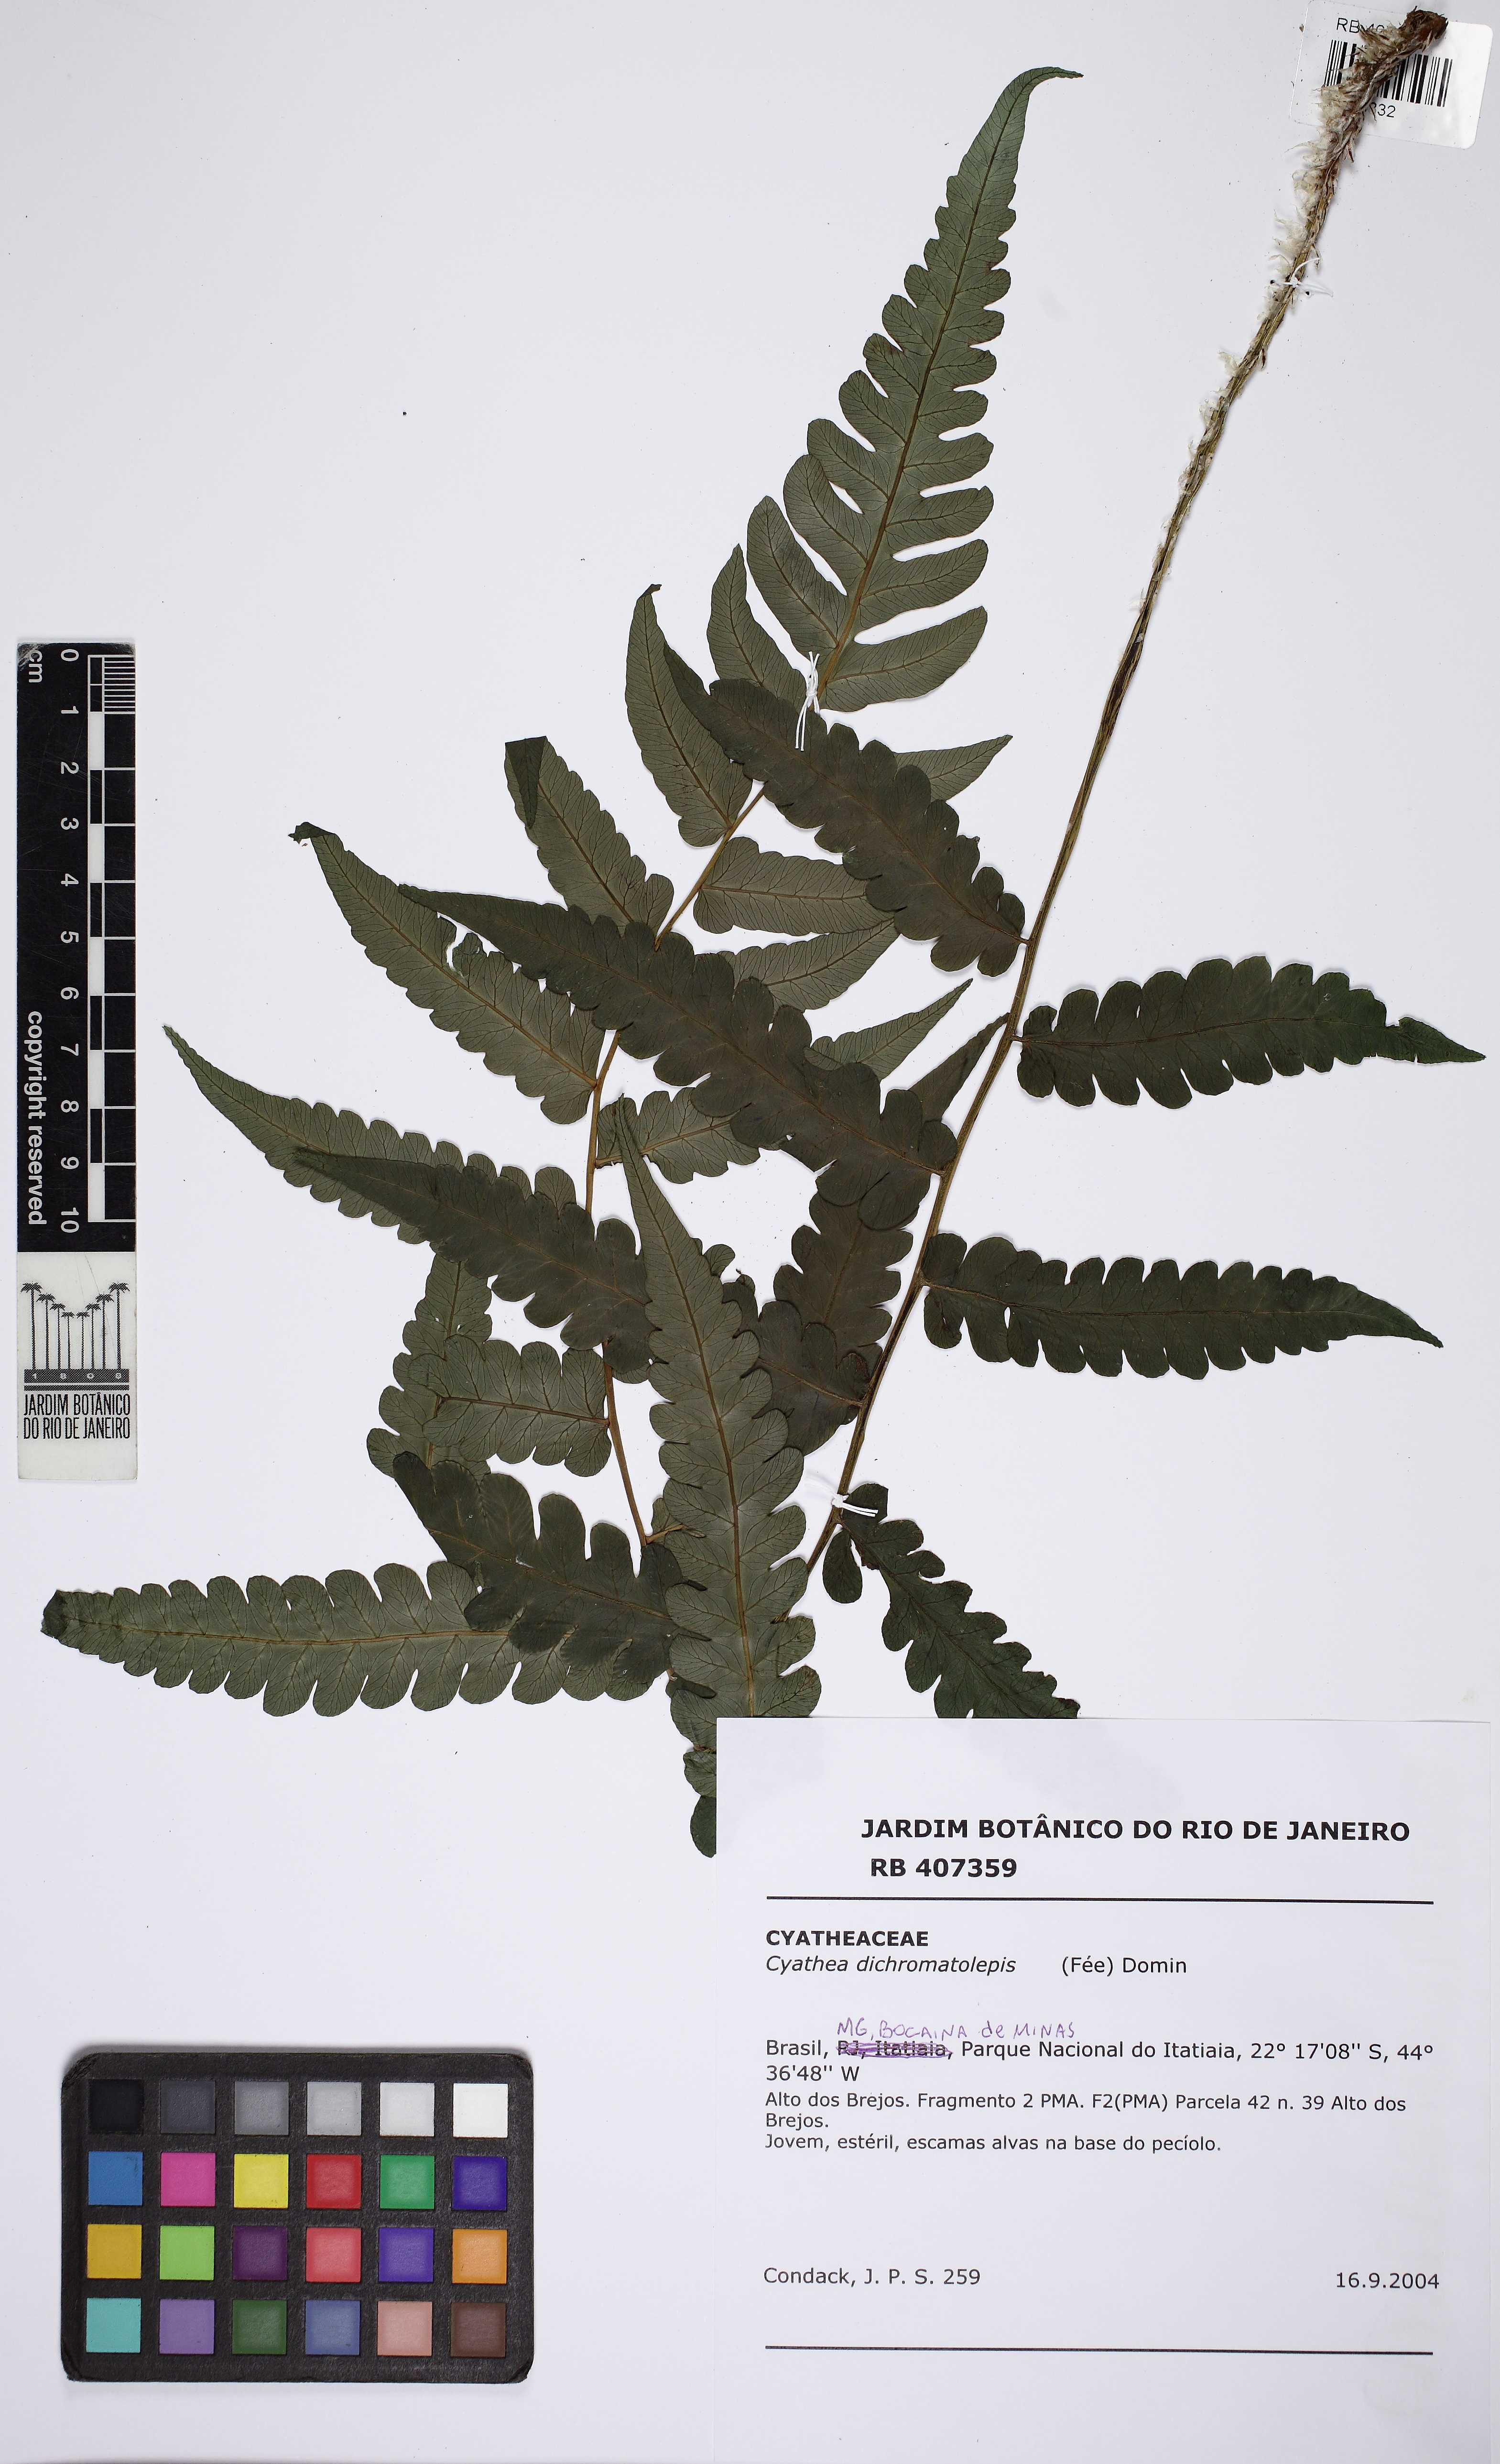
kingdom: Plantae
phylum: Tracheophyta
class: Polypodiopsida
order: Cyatheales
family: Cyatheaceae
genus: Cyathea
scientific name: Cyathea dichromatolepis
